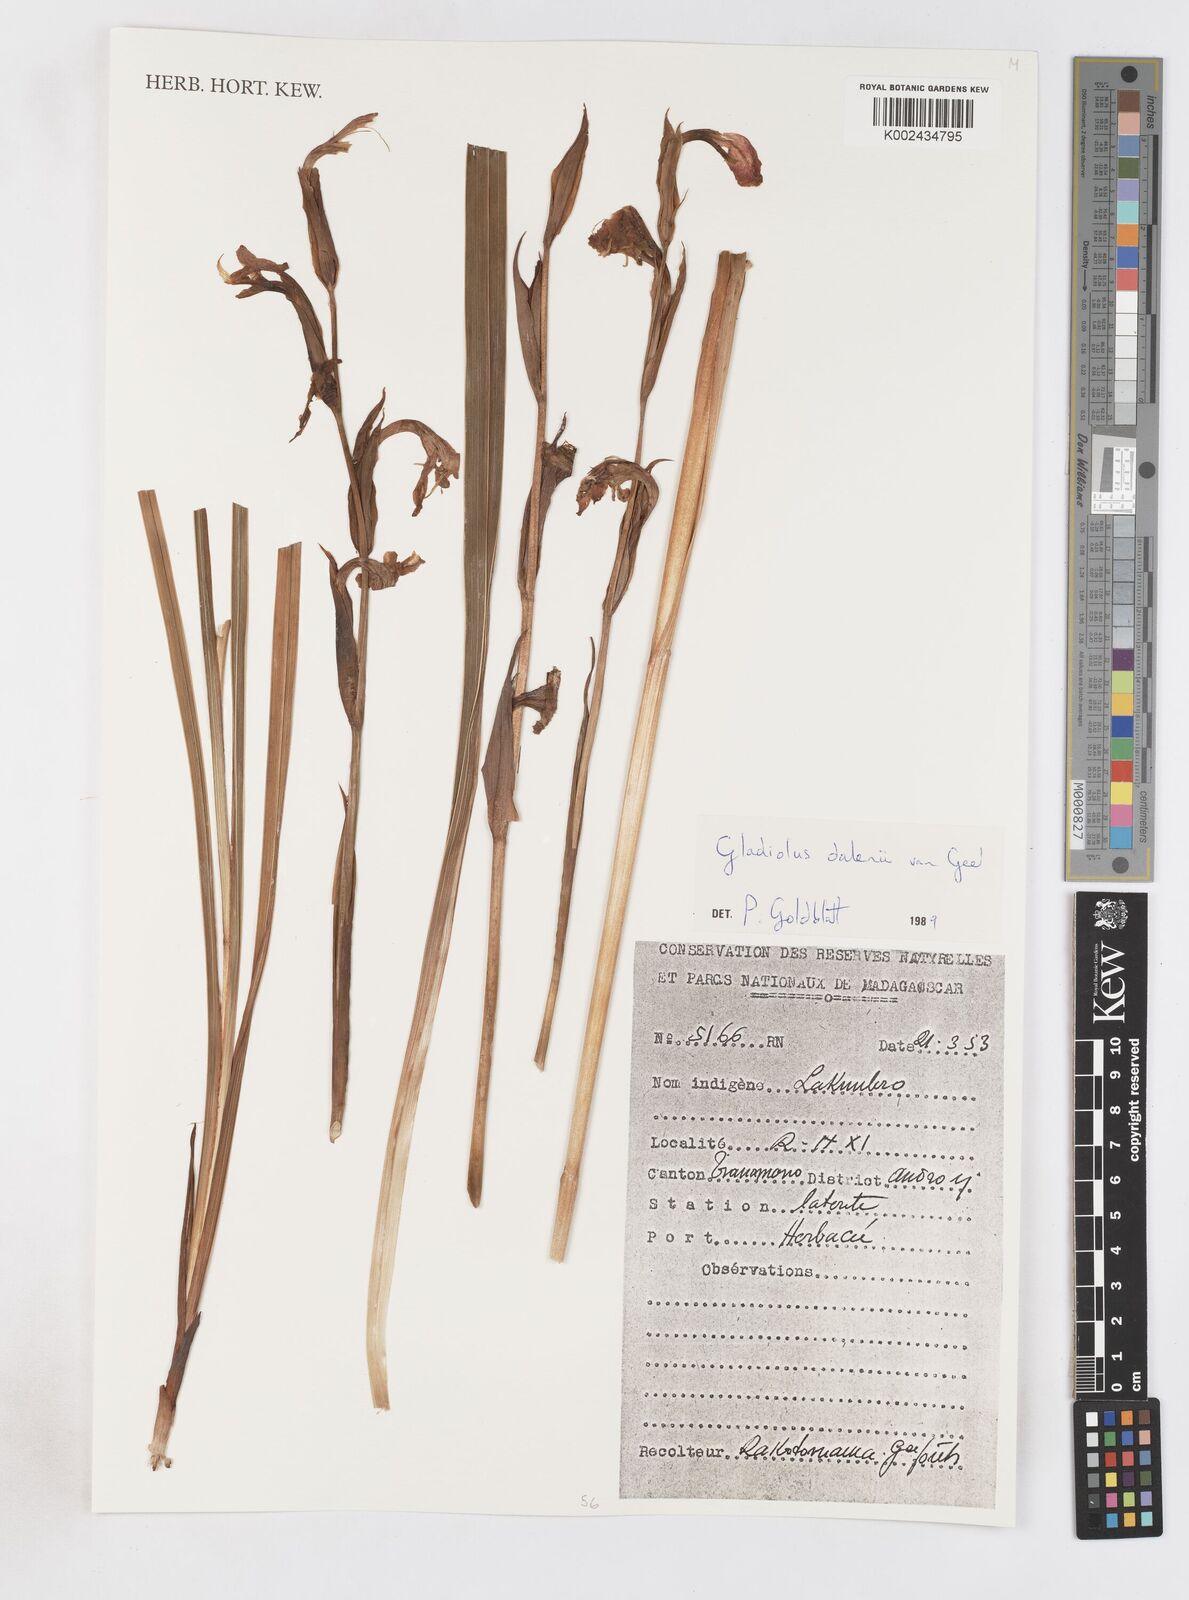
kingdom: Plantae
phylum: Tracheophyta
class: Liliopsida
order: Asparagales
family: Iridaceae
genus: Gladiolus
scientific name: Gladiolus dalenii
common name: Cornflag
